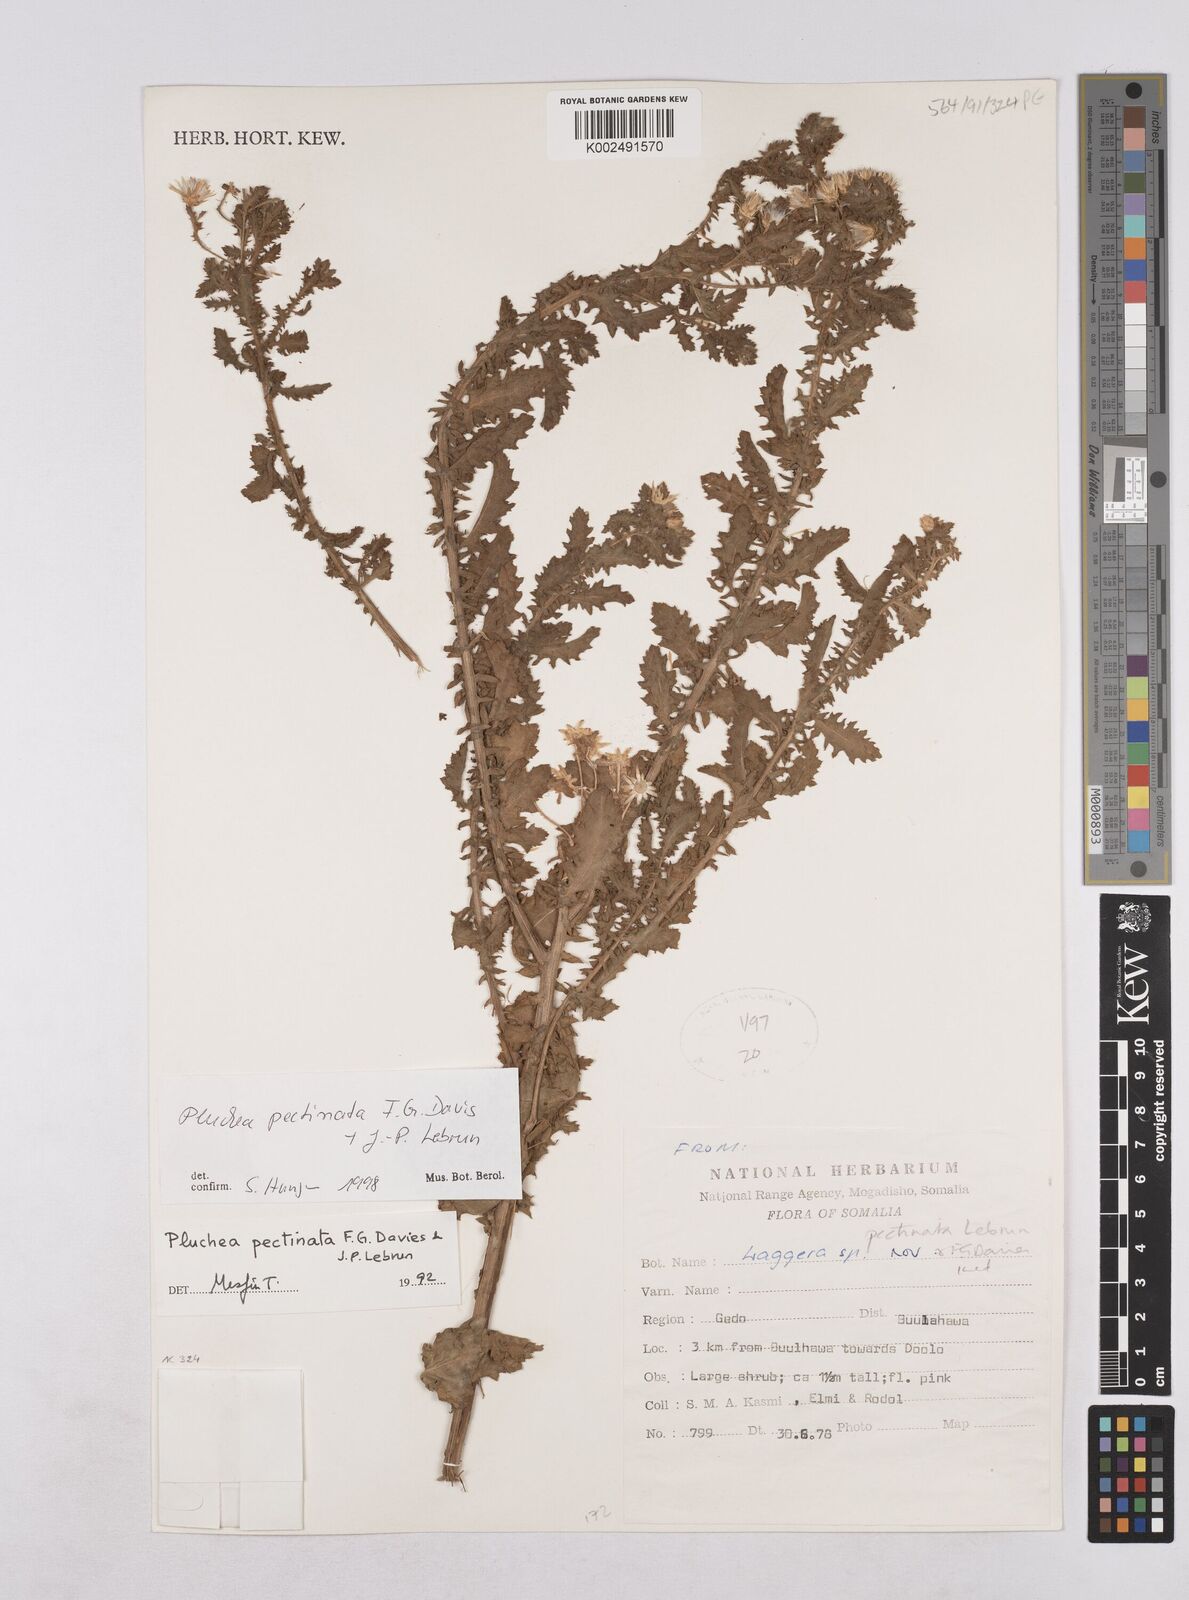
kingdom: Plantae
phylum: Tracheophyta
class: Magnoliopsida
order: Asterales
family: Asteraceae
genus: Pluchea
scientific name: Pluchea somaliensis
